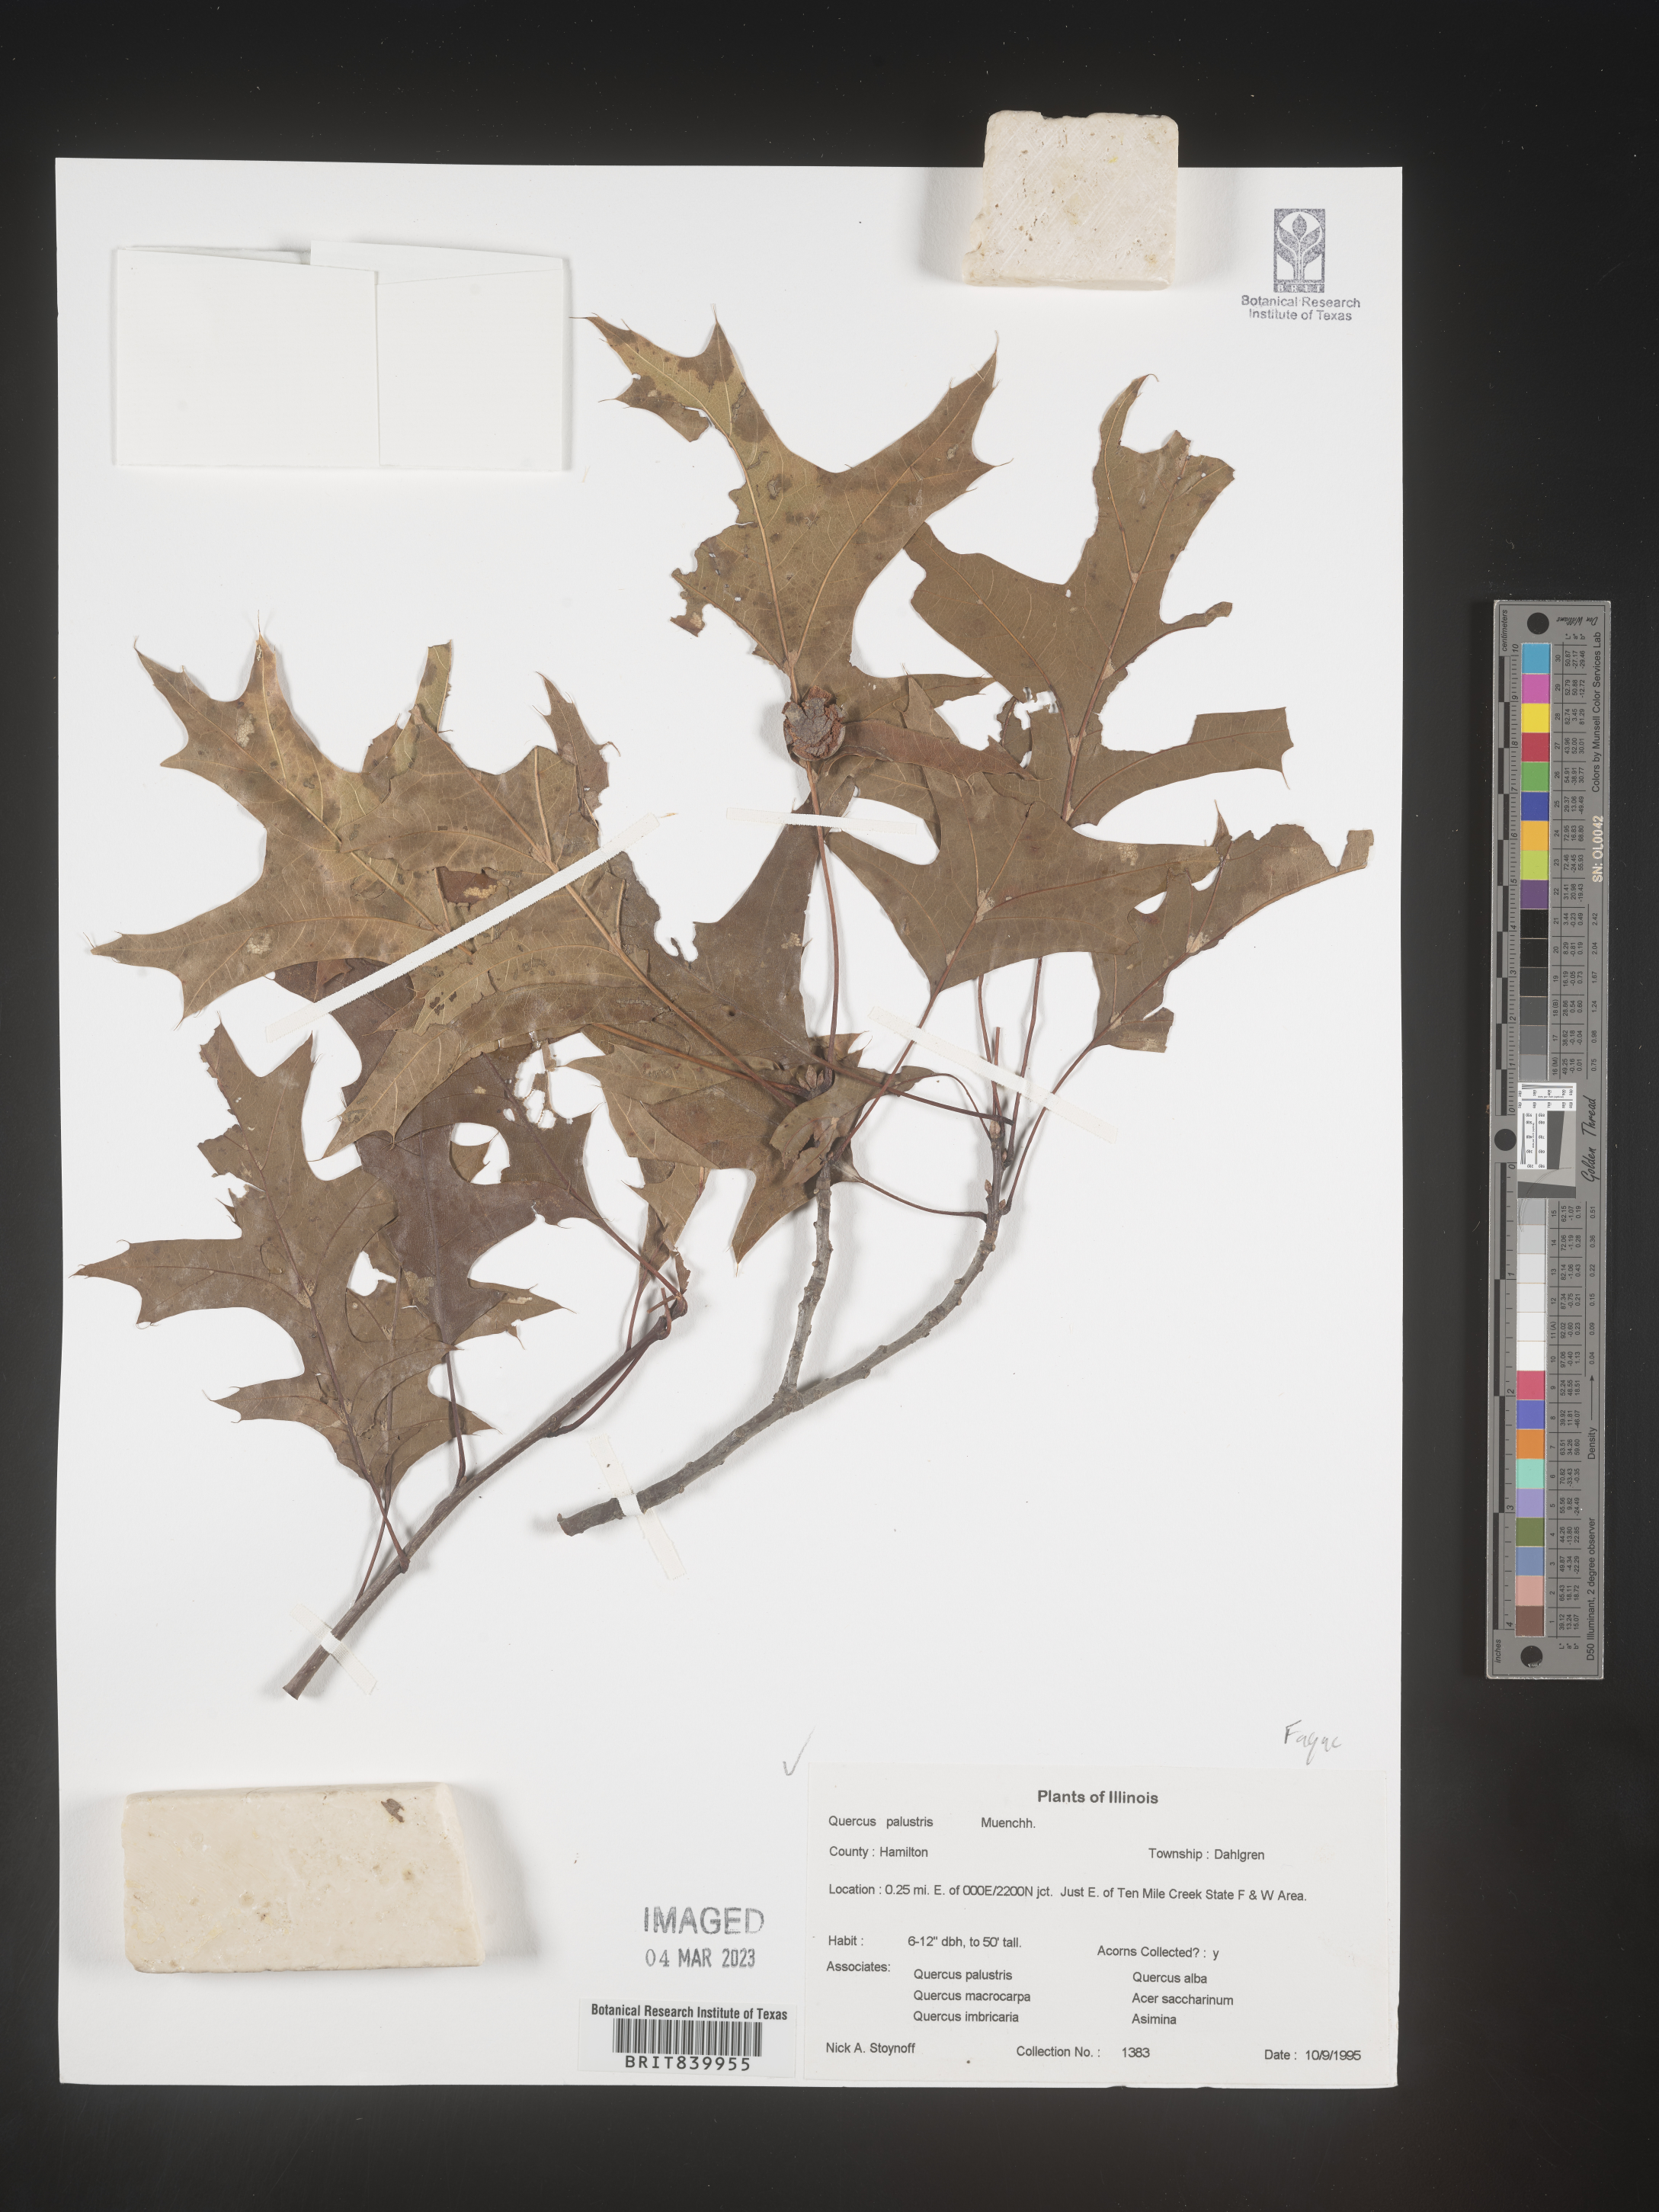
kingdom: Plantae
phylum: Tracheophyta
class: Magnoliopsida
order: Fagales
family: Fagaceae
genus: Quercus
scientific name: Quercus palustris
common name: Pin oak
